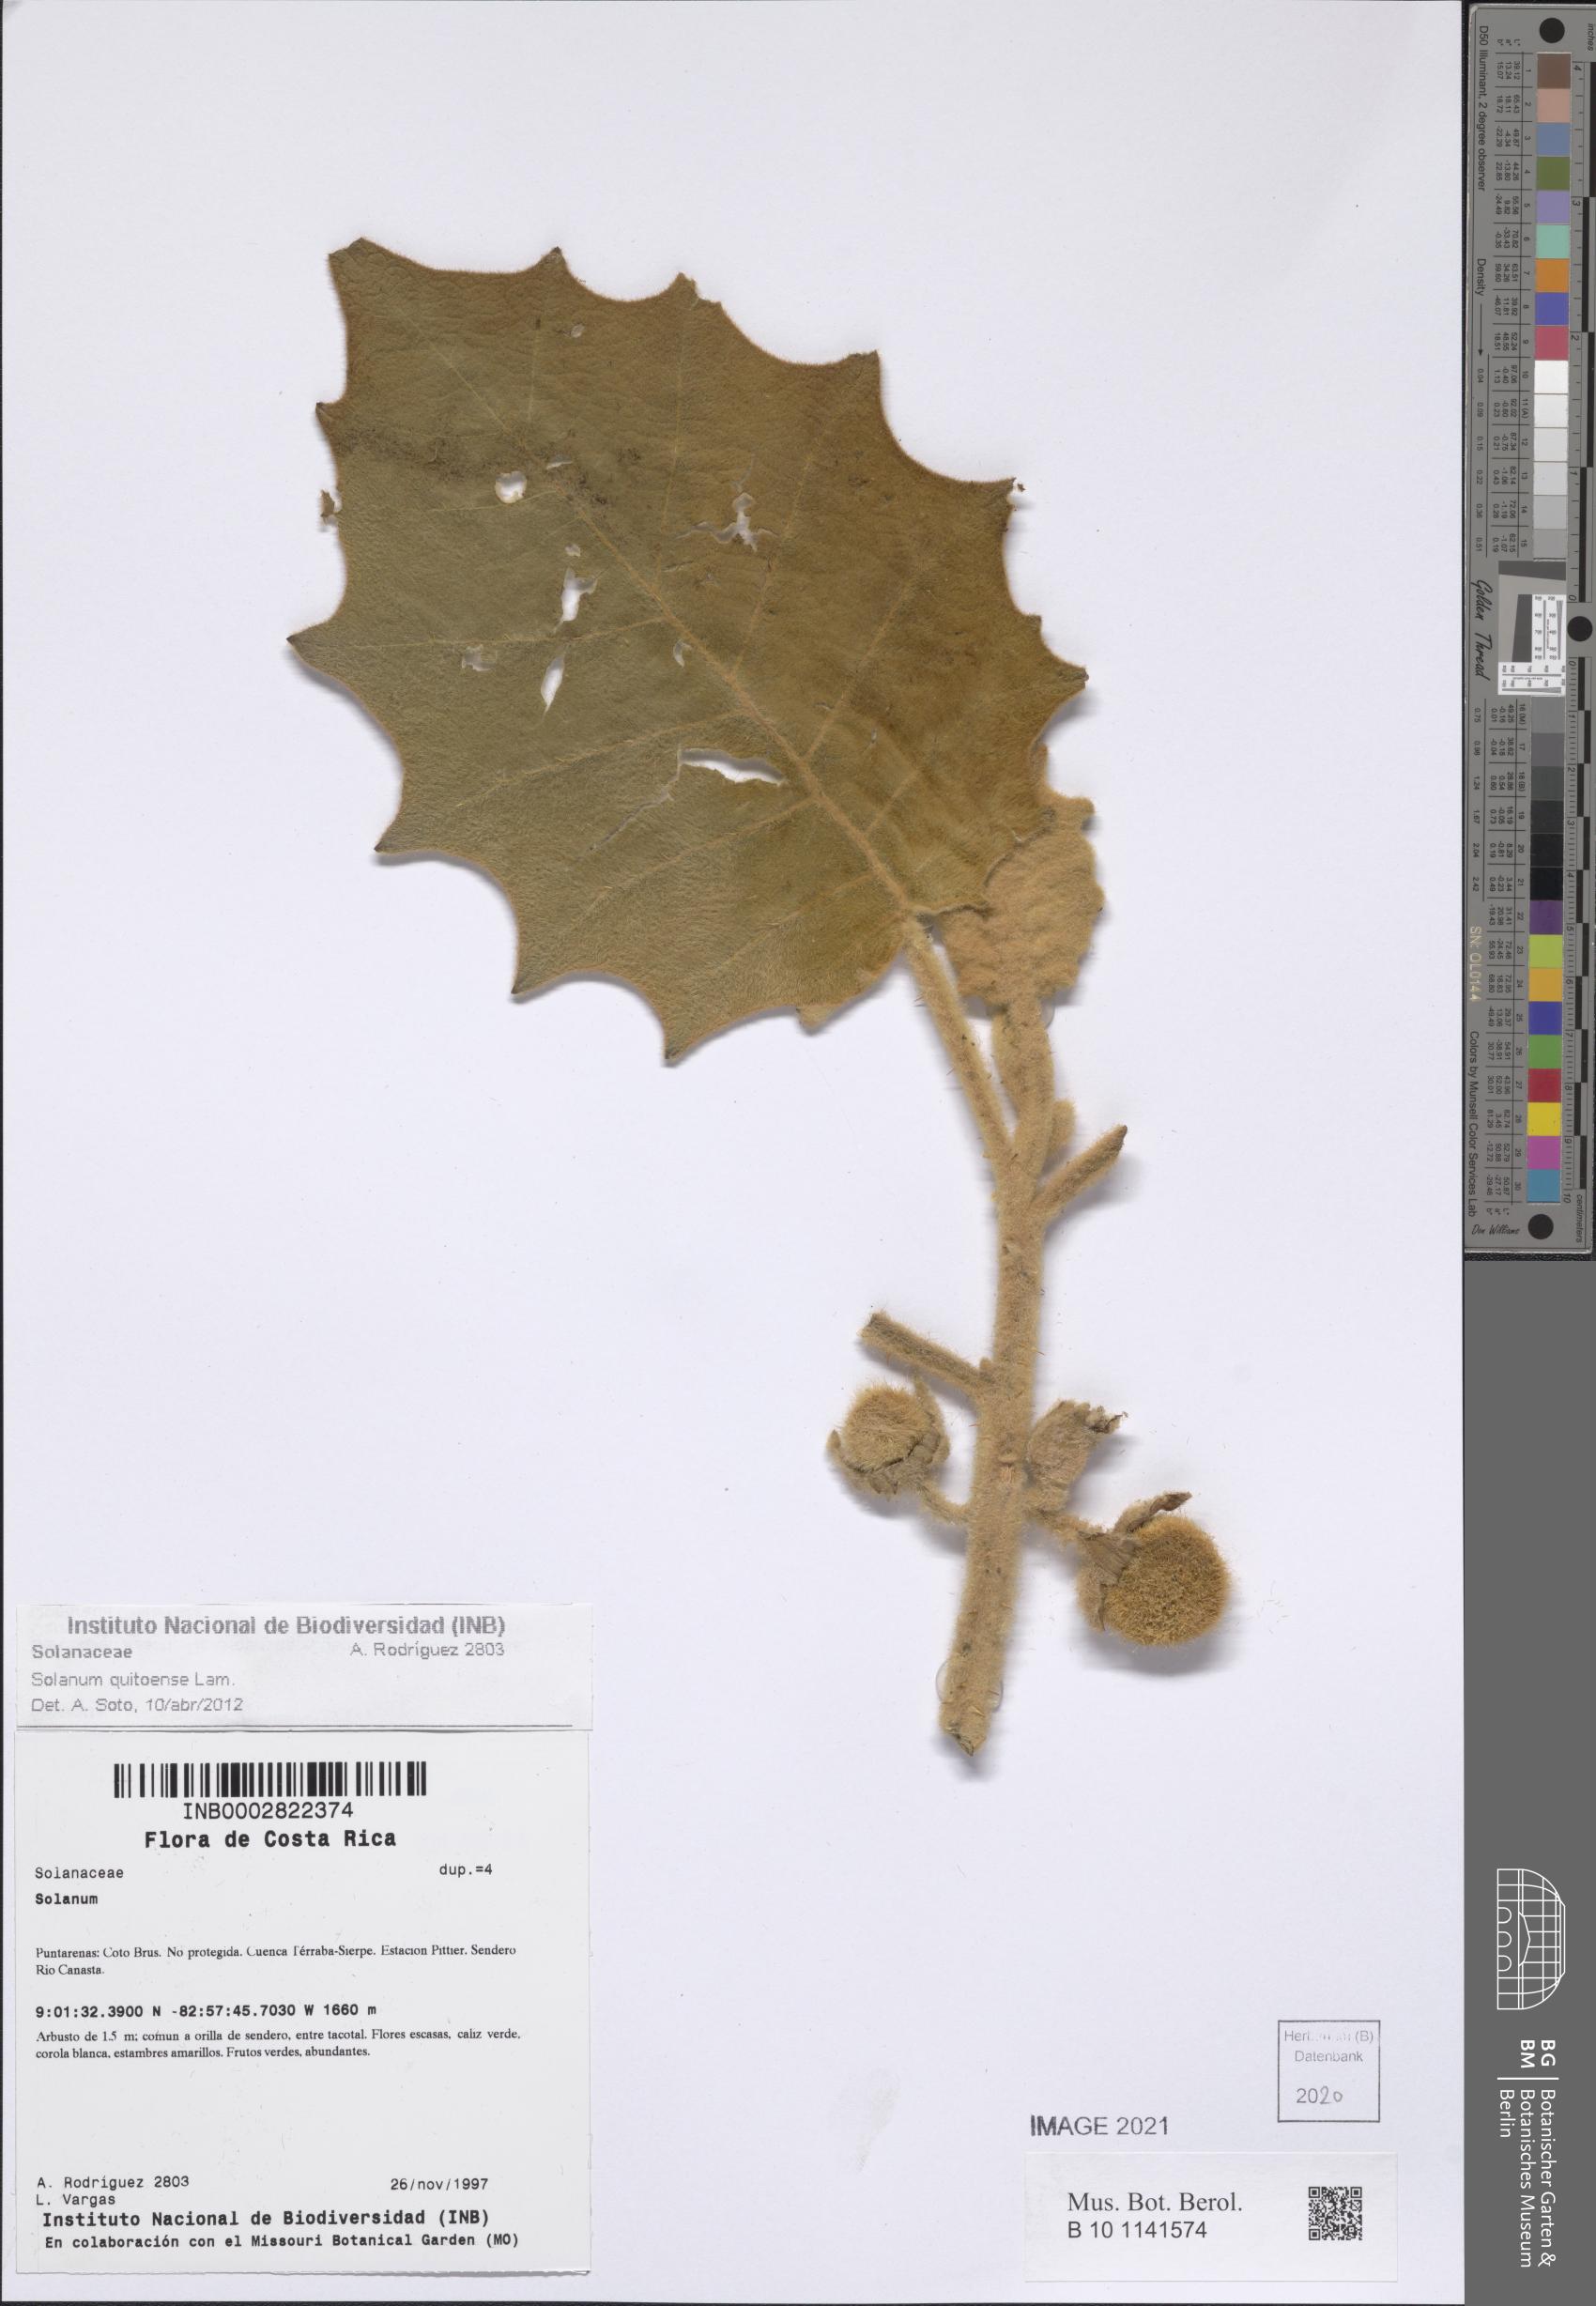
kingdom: Plantae
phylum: Tracheophyta
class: Magnoliopsida
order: Solanales
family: Solanaceae
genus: Solanum
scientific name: Solanum quitoense
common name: Quito-orange
